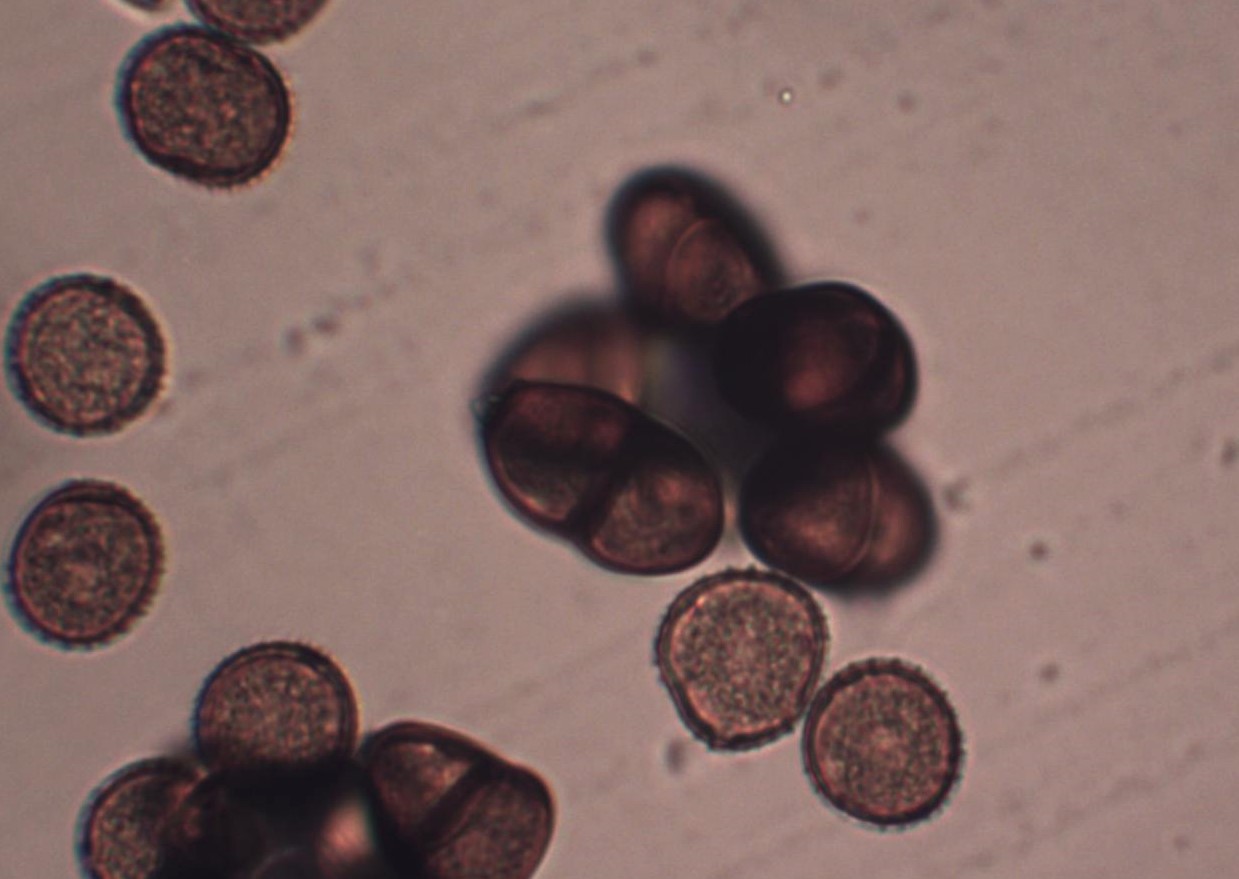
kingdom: Fungi
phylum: Basidiomycota
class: Pucciniomycetes
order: Pucciniales
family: Pucciniaceae
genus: Puccinia
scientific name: Puccinia lapsanae
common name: Nipplewort rust
